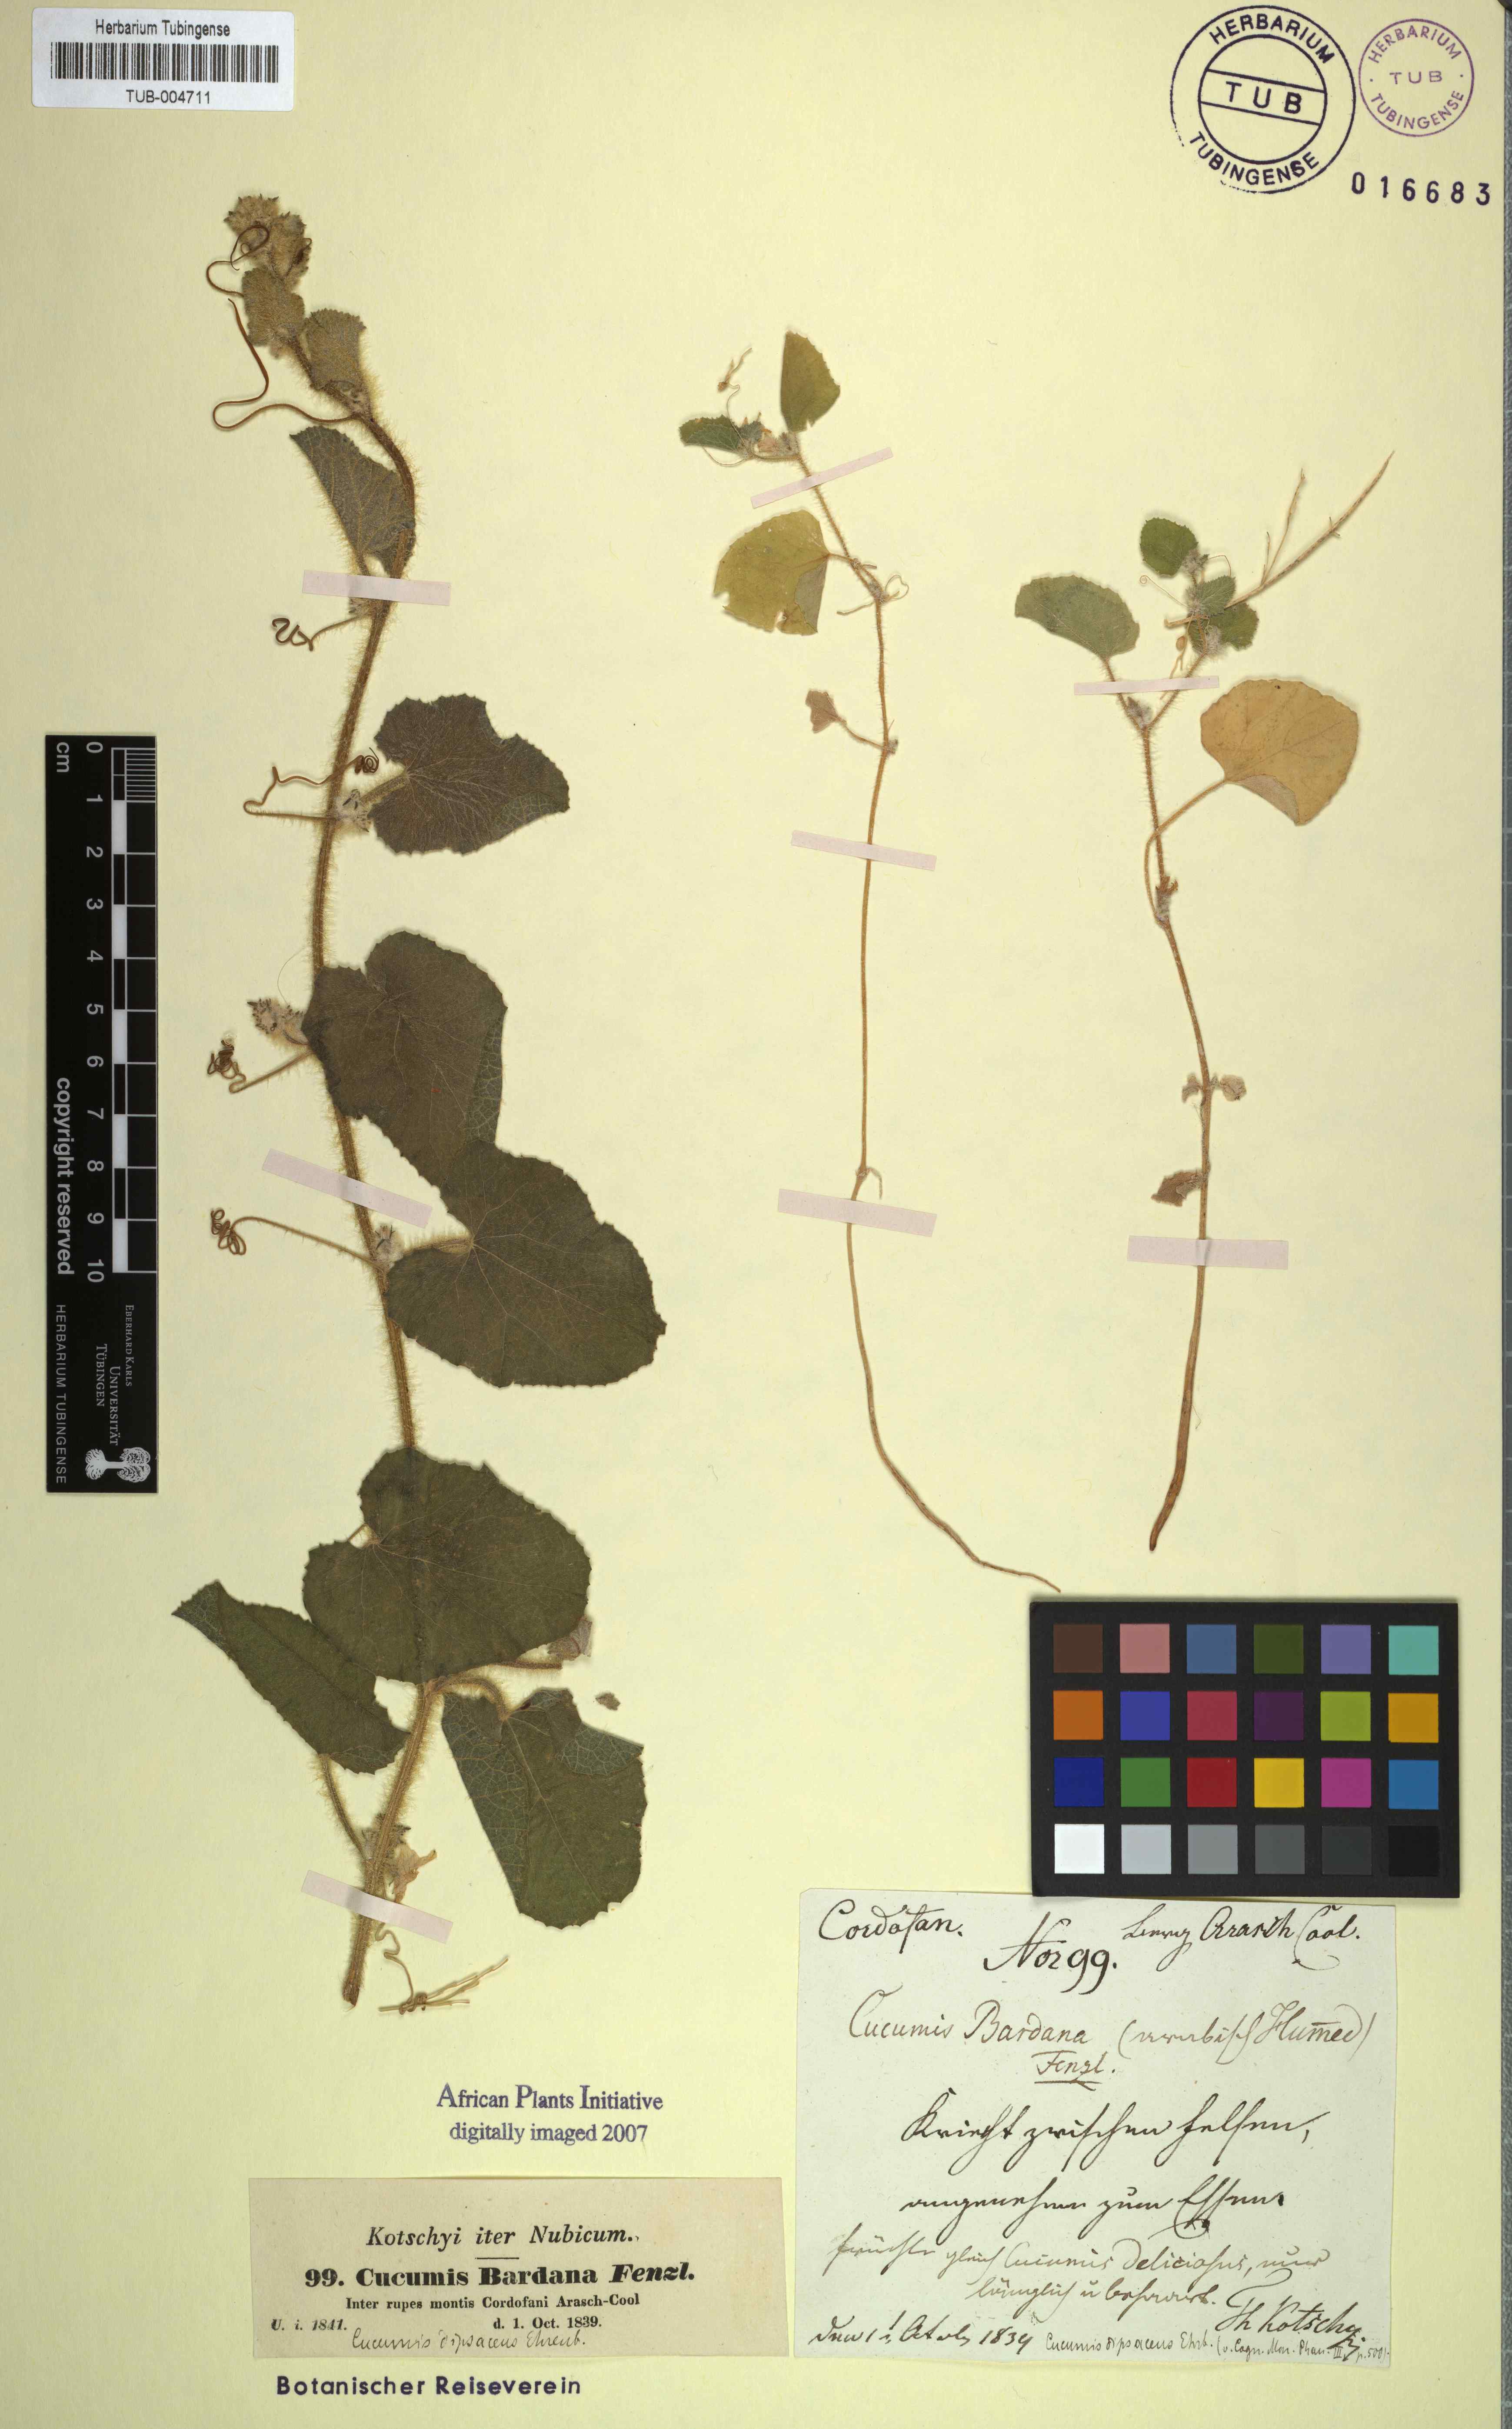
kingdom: Plantae
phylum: Tracheophyta
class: Magnoliopsida
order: Cucurbitales
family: Cucurbitaceae
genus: Cucumis
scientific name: Cucumis dipsaceus
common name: Hedgehog gourd
